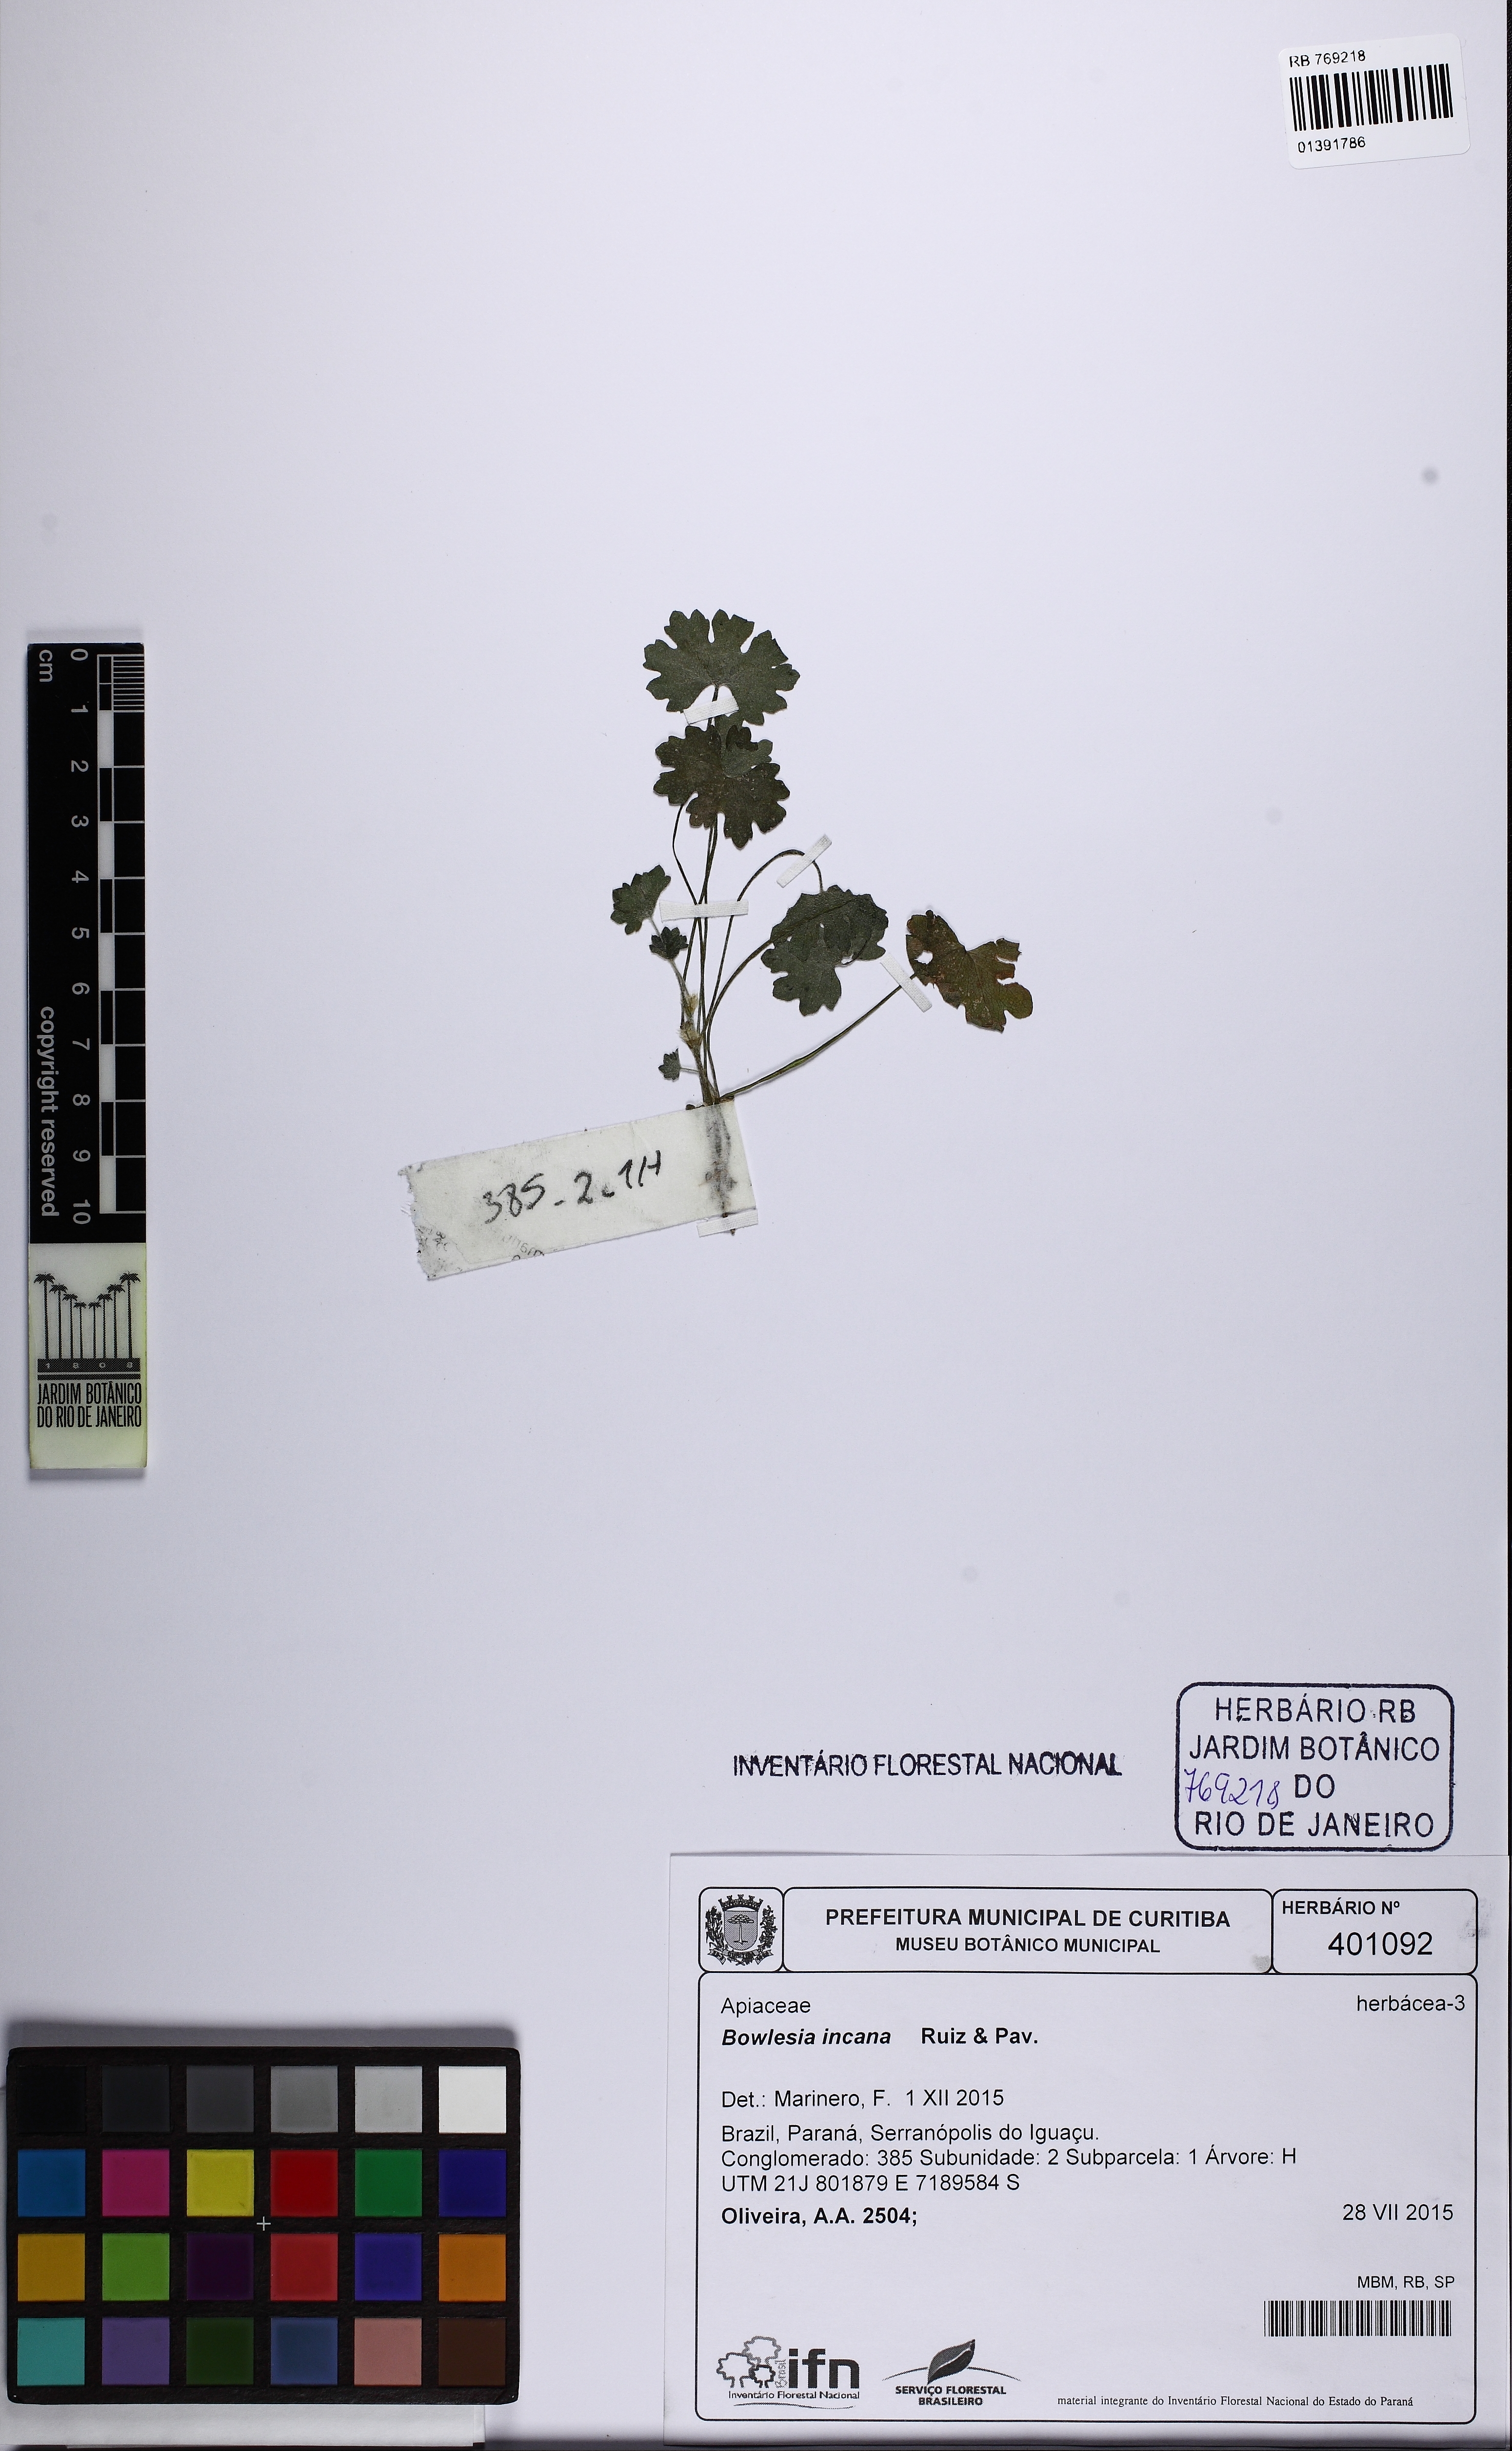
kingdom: Plantae
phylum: Tracheophyta
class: Magnoliopsida
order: Apiales
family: Apiaceae
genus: Bowlesia
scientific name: Bowlesia incana
